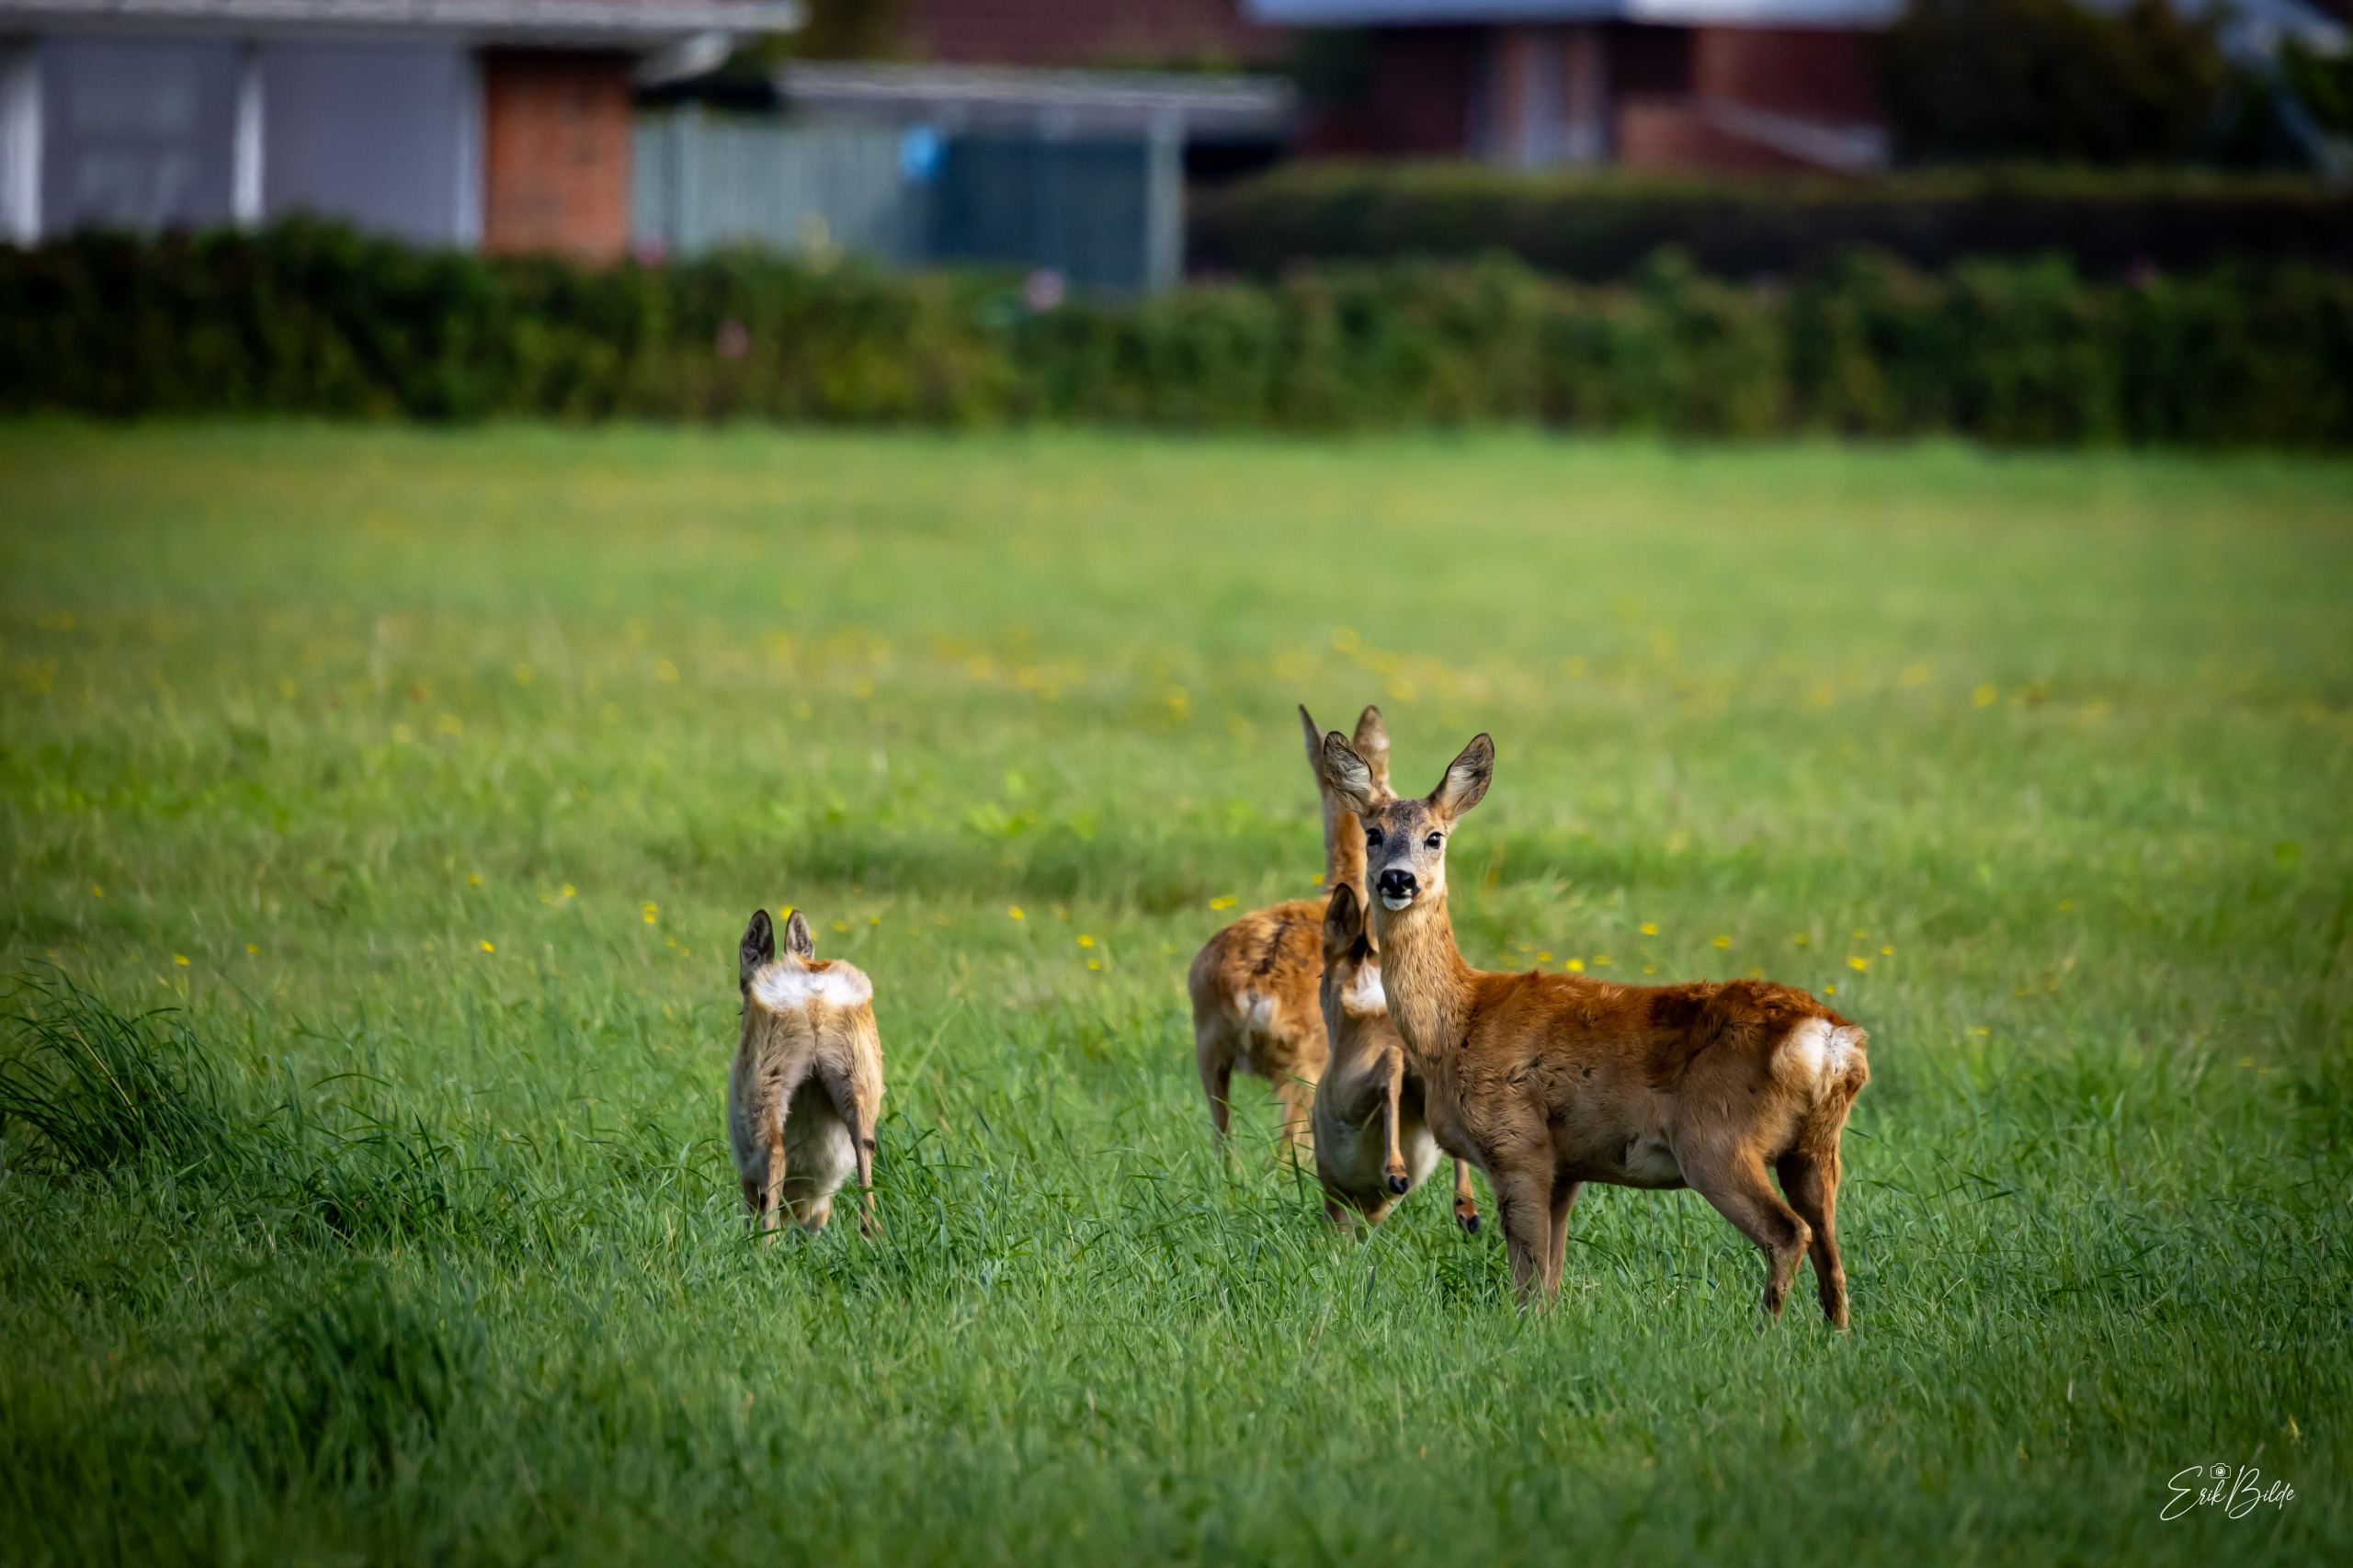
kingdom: Animalia
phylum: Chordata
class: Mammalia
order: Artiodactyla
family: Cervidae
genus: Capreolus
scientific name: Capreolus capreolus
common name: Rådyr
